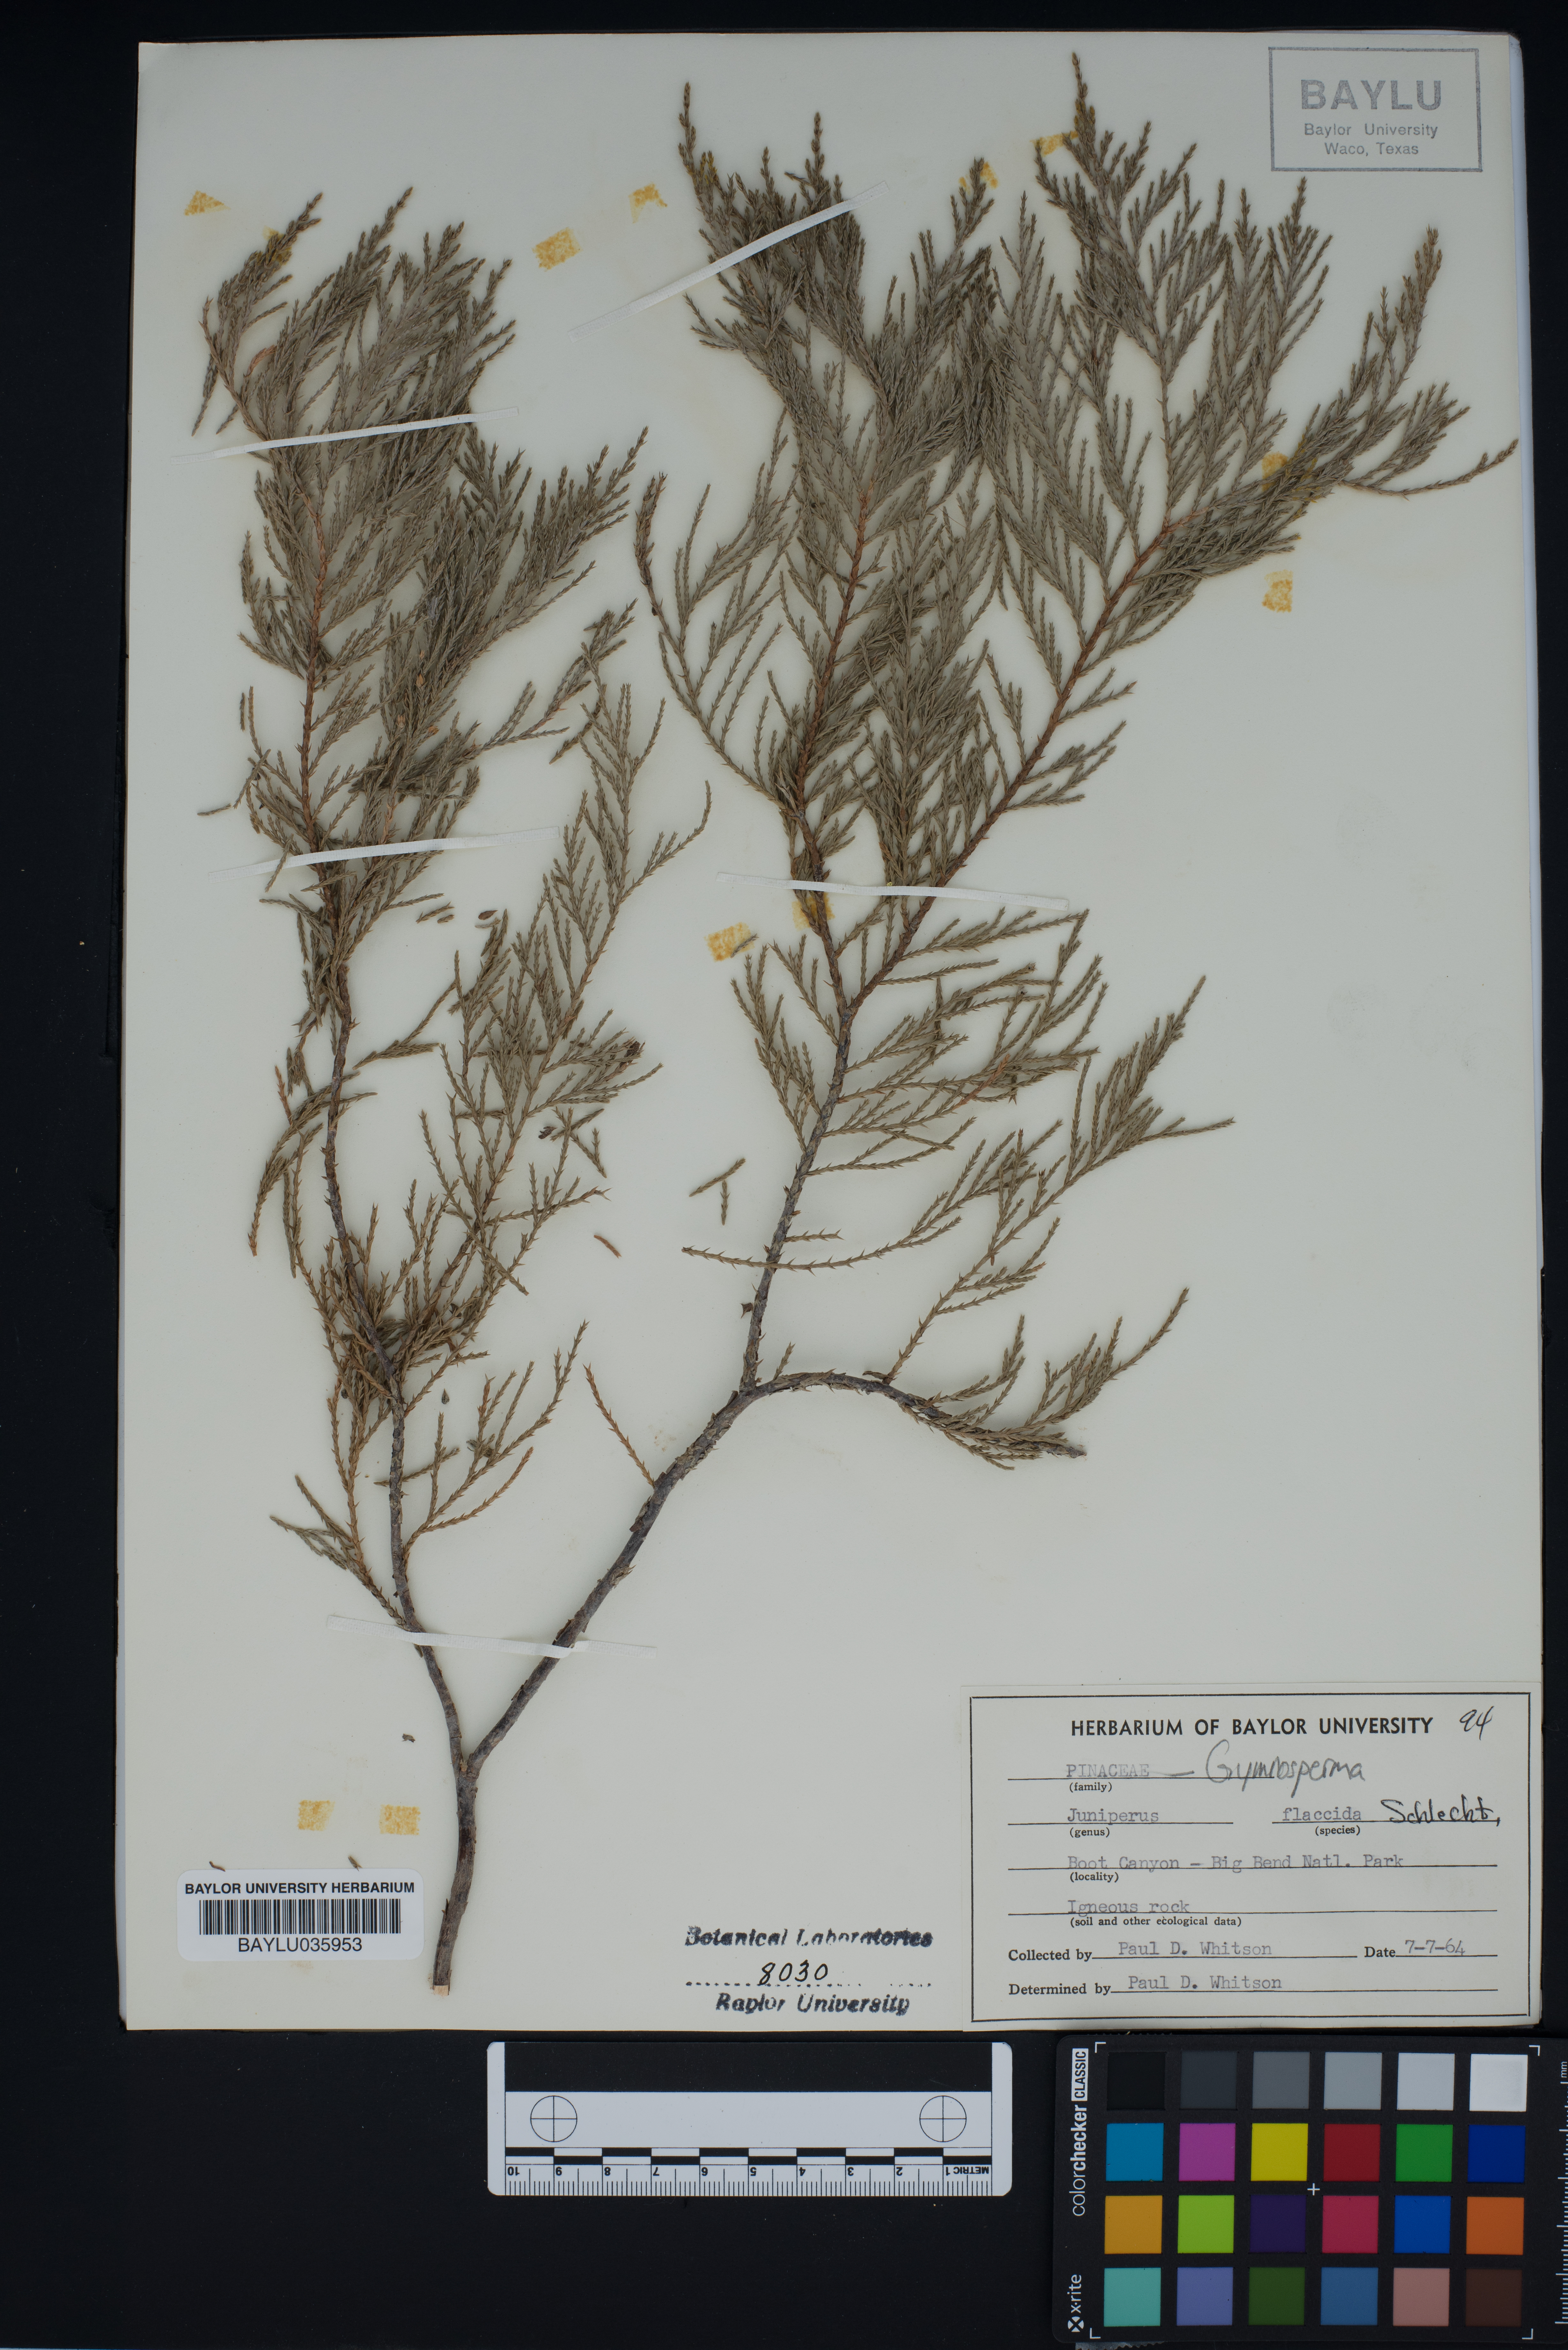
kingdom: Plantae
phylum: Tracheophyta
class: Pinopsida
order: Pinales
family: Cupressaceae
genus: Juniperus
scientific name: Juniperus flaccida
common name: Drooping juniper
